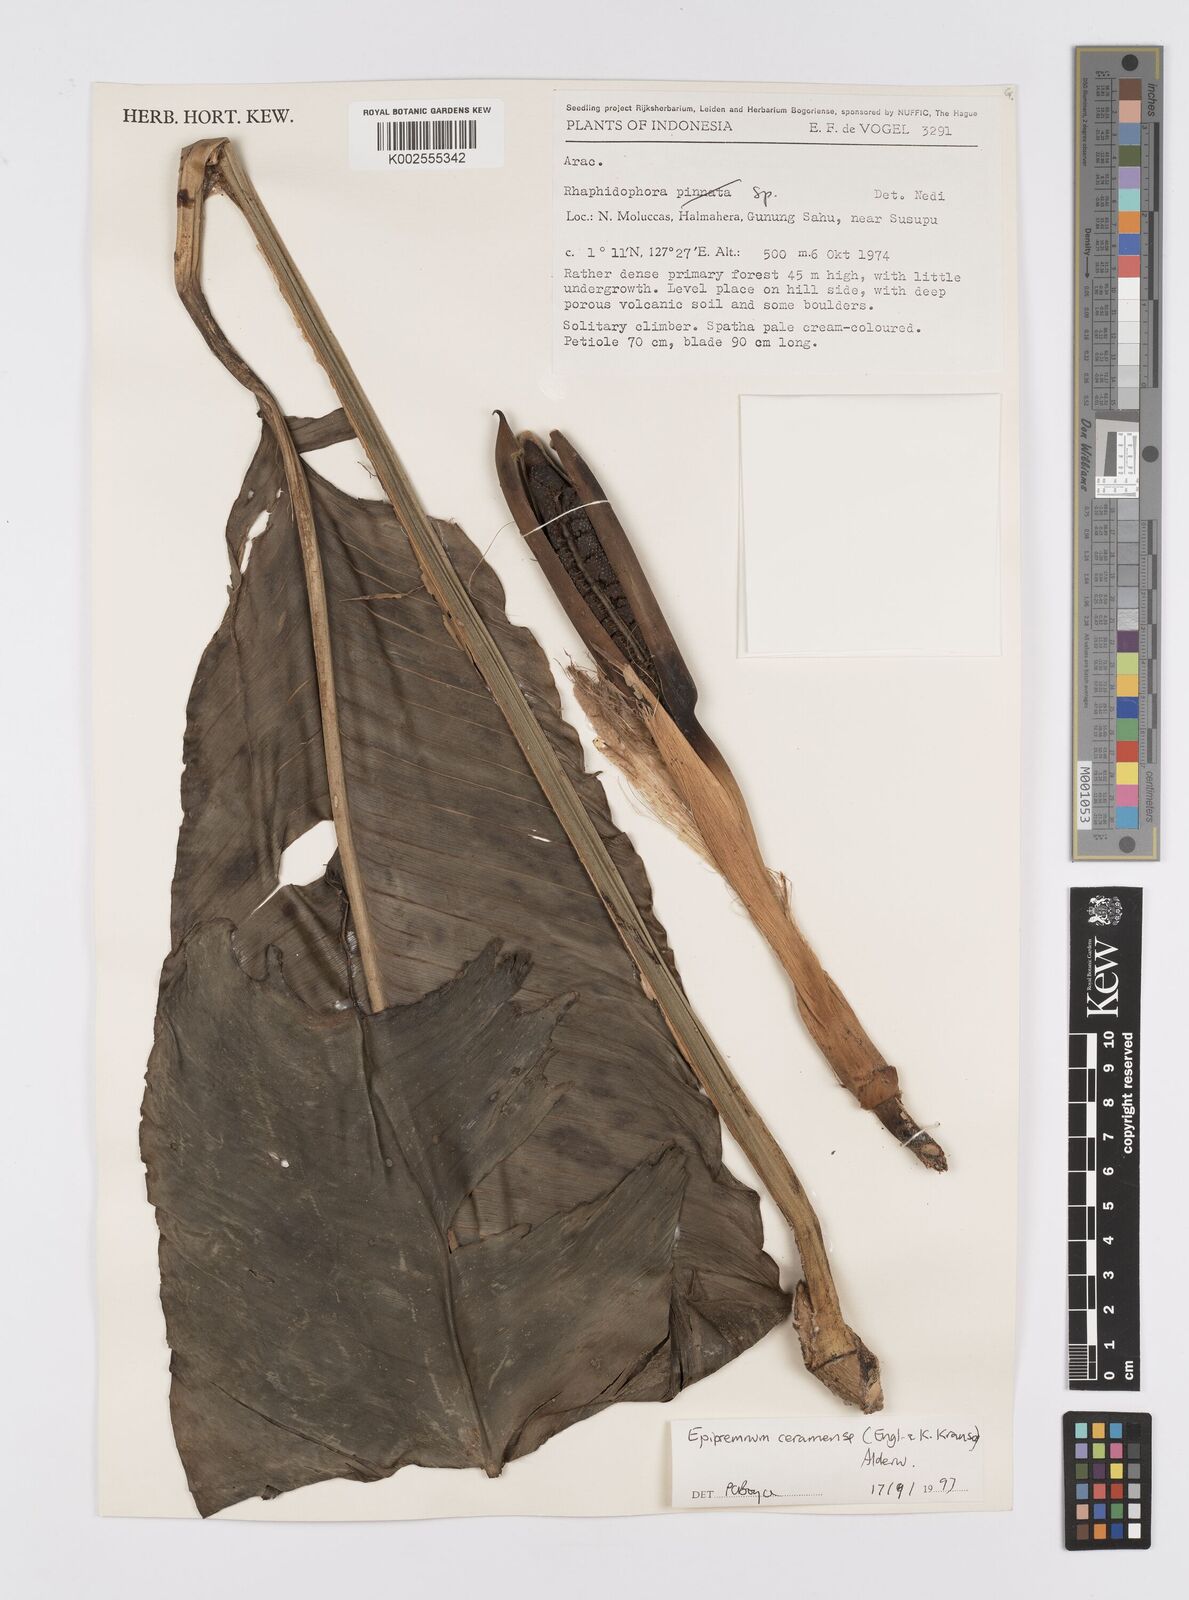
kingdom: Plantae
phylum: Tracheophyta
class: Liliopsida
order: Alismatales
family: Araceae
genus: Epipremnum
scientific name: Epipremnum ceramense
